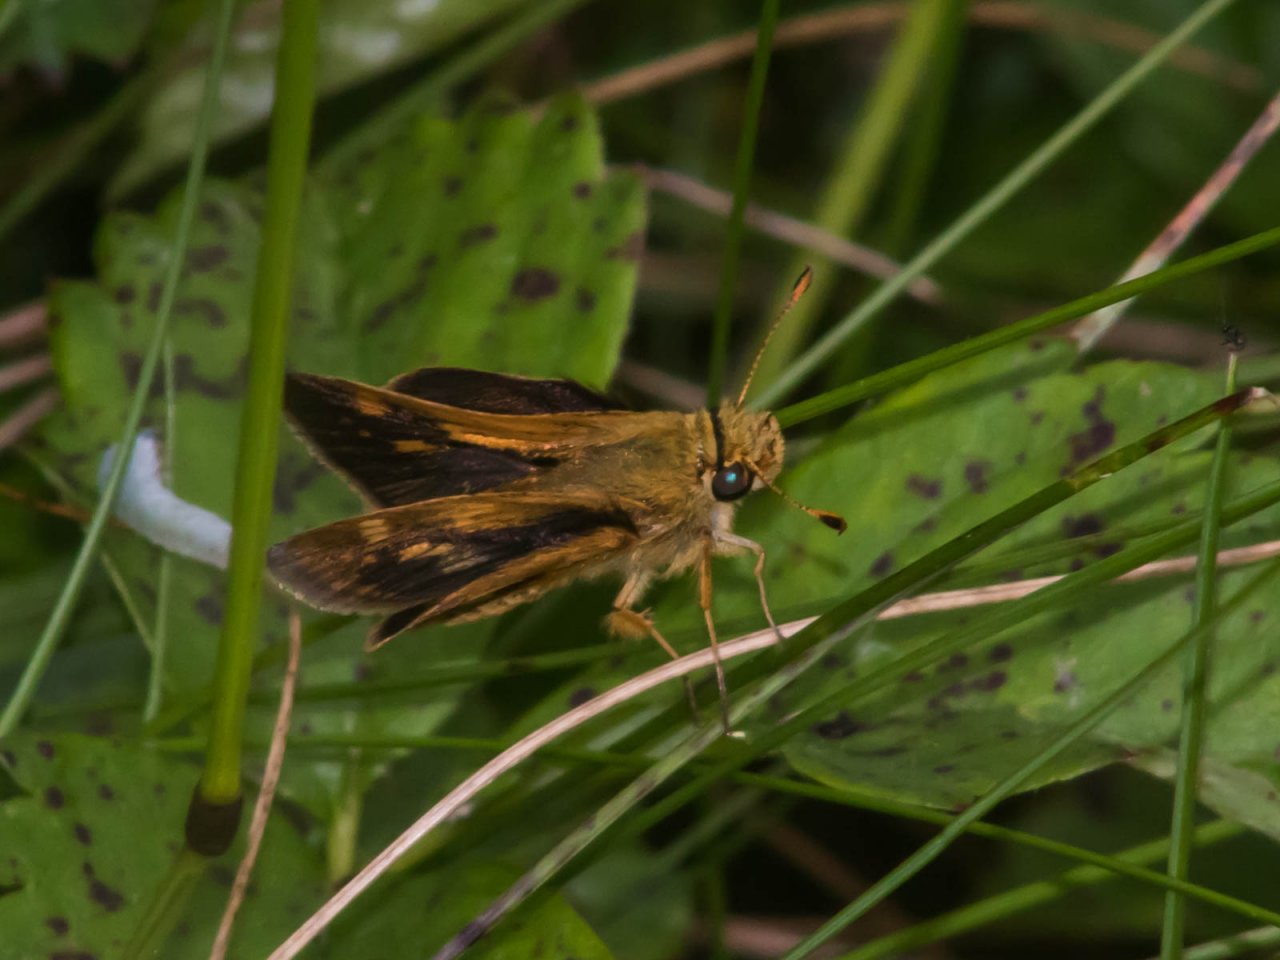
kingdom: Animalia
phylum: Arthropoda
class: Insecta
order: Lepidoptera
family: Hesperiidae
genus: Polites
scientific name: Polites coras
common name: Peck's Skipper
